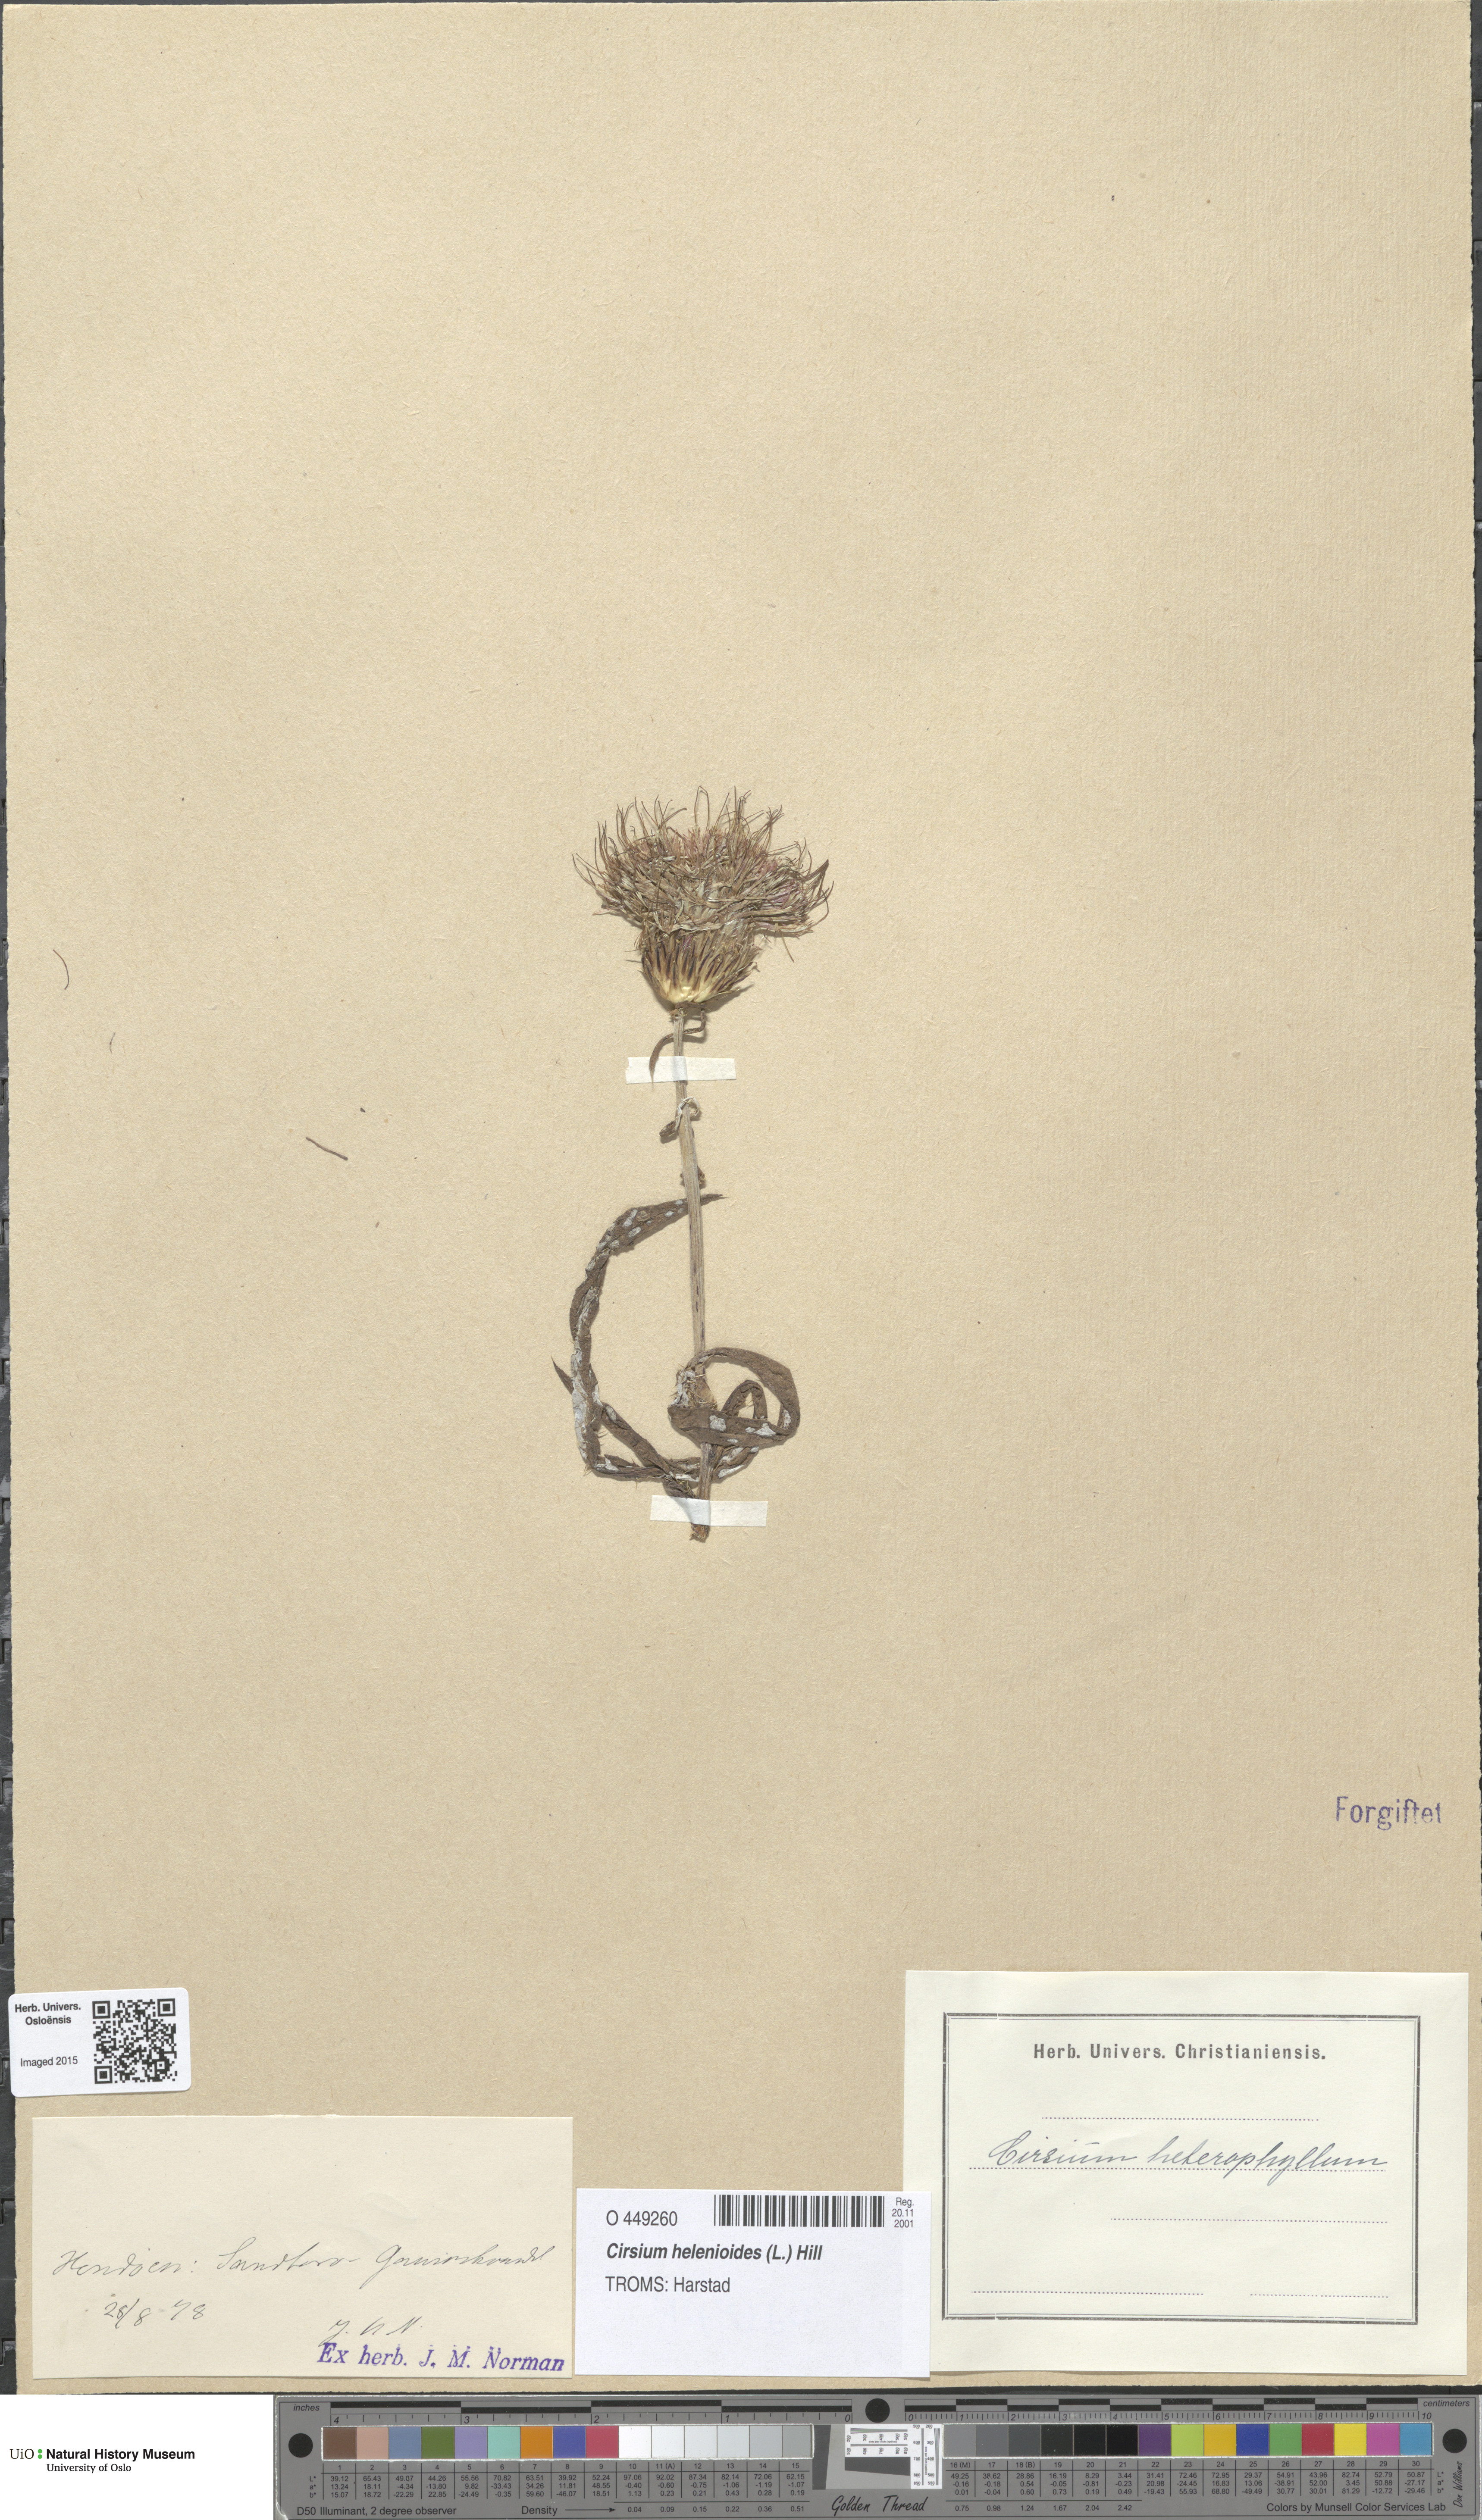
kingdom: Plantae
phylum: Tracheophyta
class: Magnoliopsida
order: Asterales
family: Asteraceae
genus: Cirsium
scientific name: Cirsium heterophyllum
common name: Melancholy thistle
